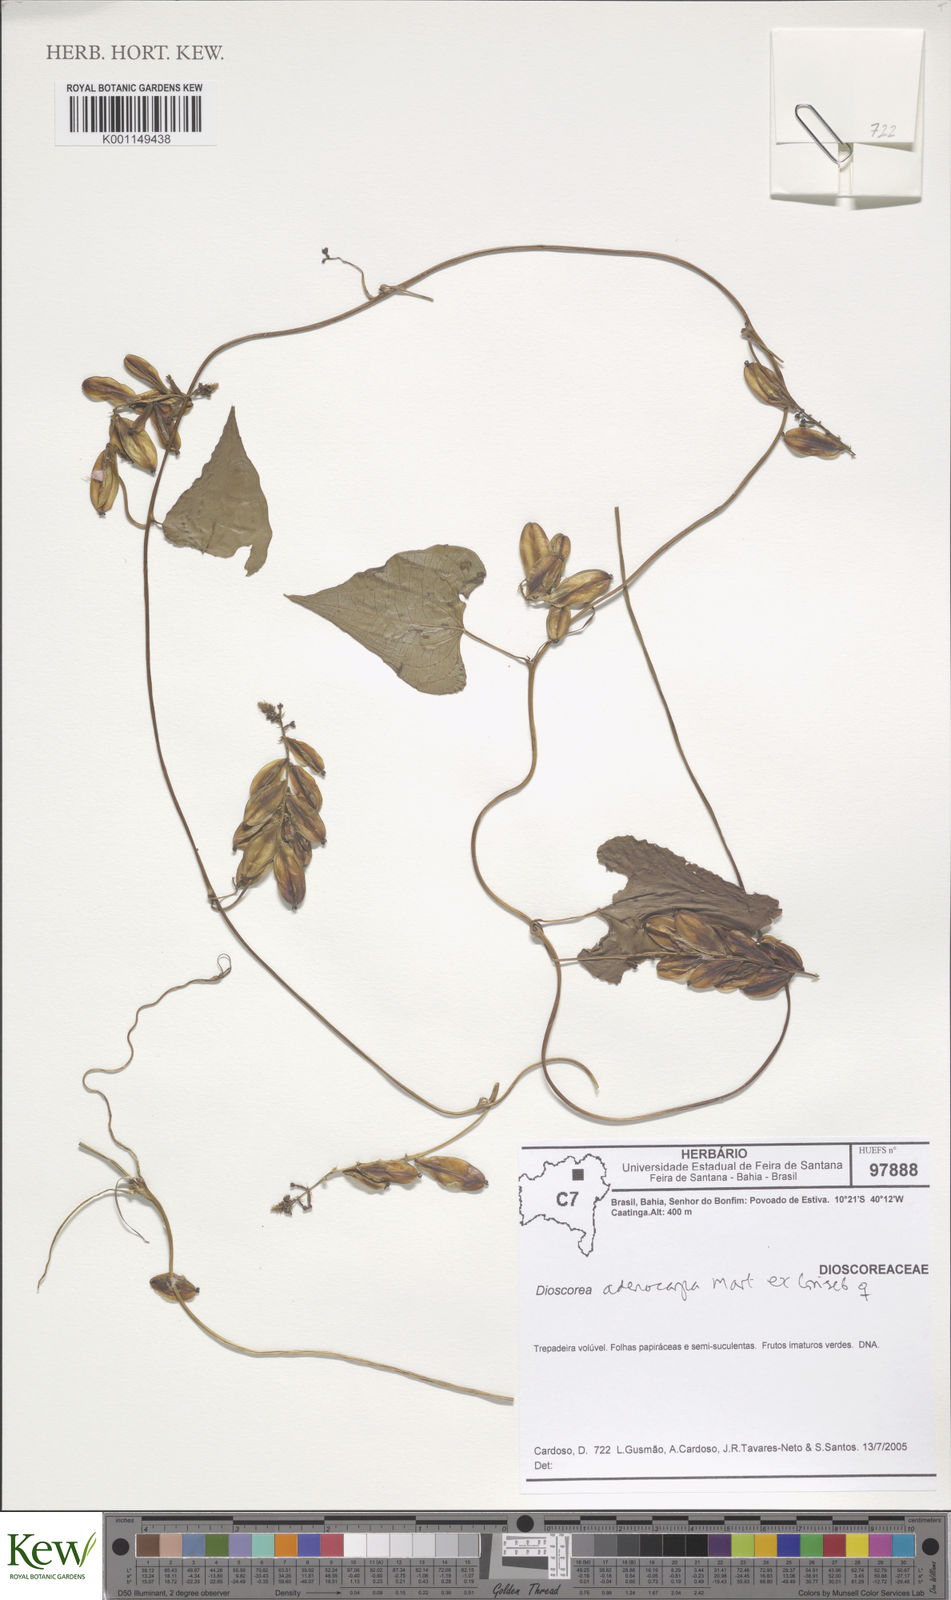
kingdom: Plantae
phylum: Tracheophyta
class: Liliopsida
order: Dioscoreales
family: Dioscoreaceae
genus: Dioscorea
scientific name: Dioscorea glandulosa
